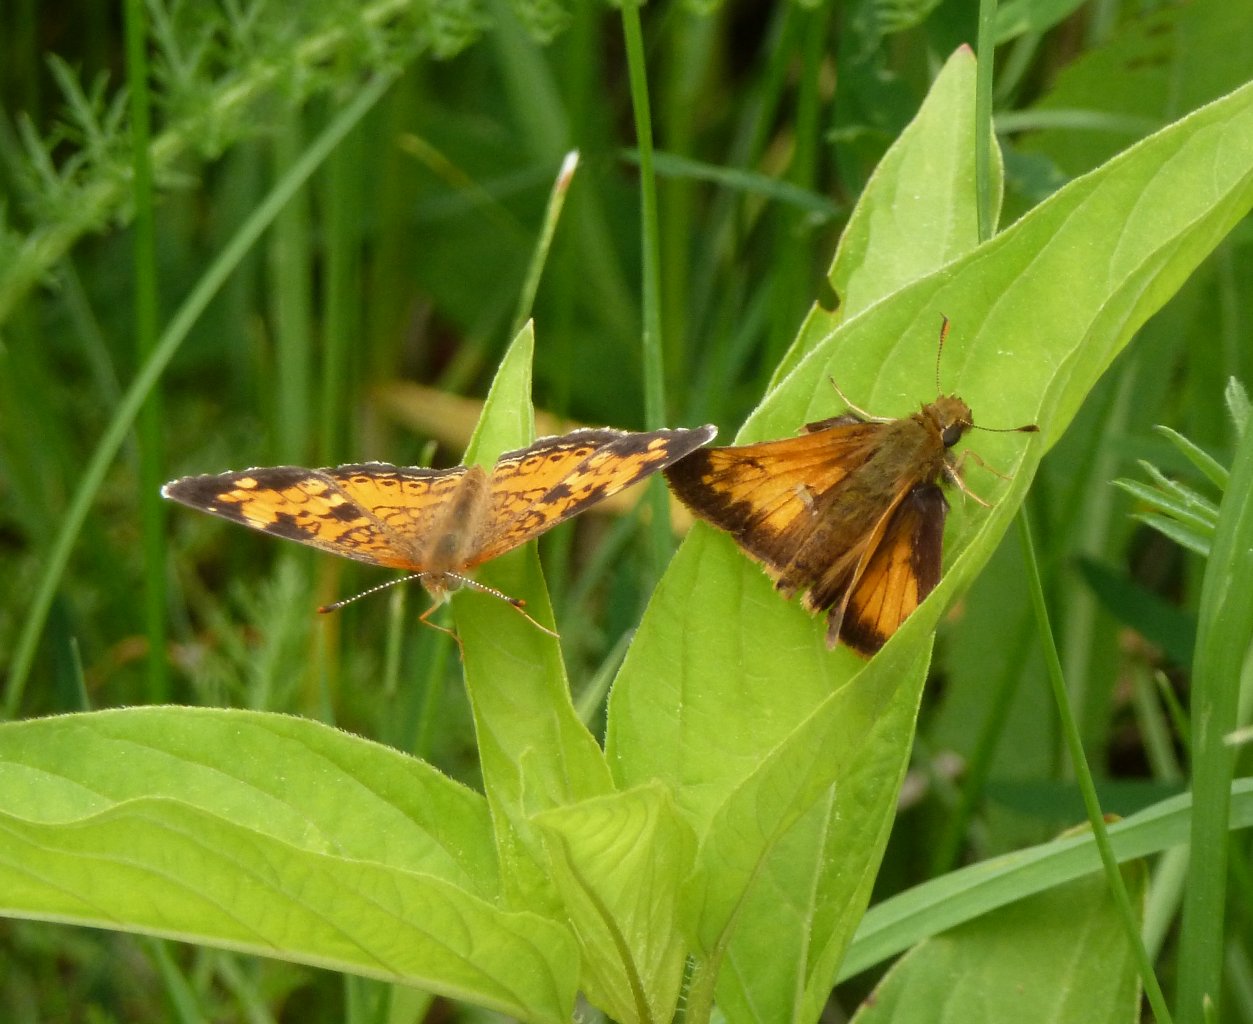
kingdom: Animalia
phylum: Arthropoda
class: Insecta
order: Lepidoptera
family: Nymphalidae
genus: Phyciodes
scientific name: Phyciodes tharos
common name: Northern Crescent
